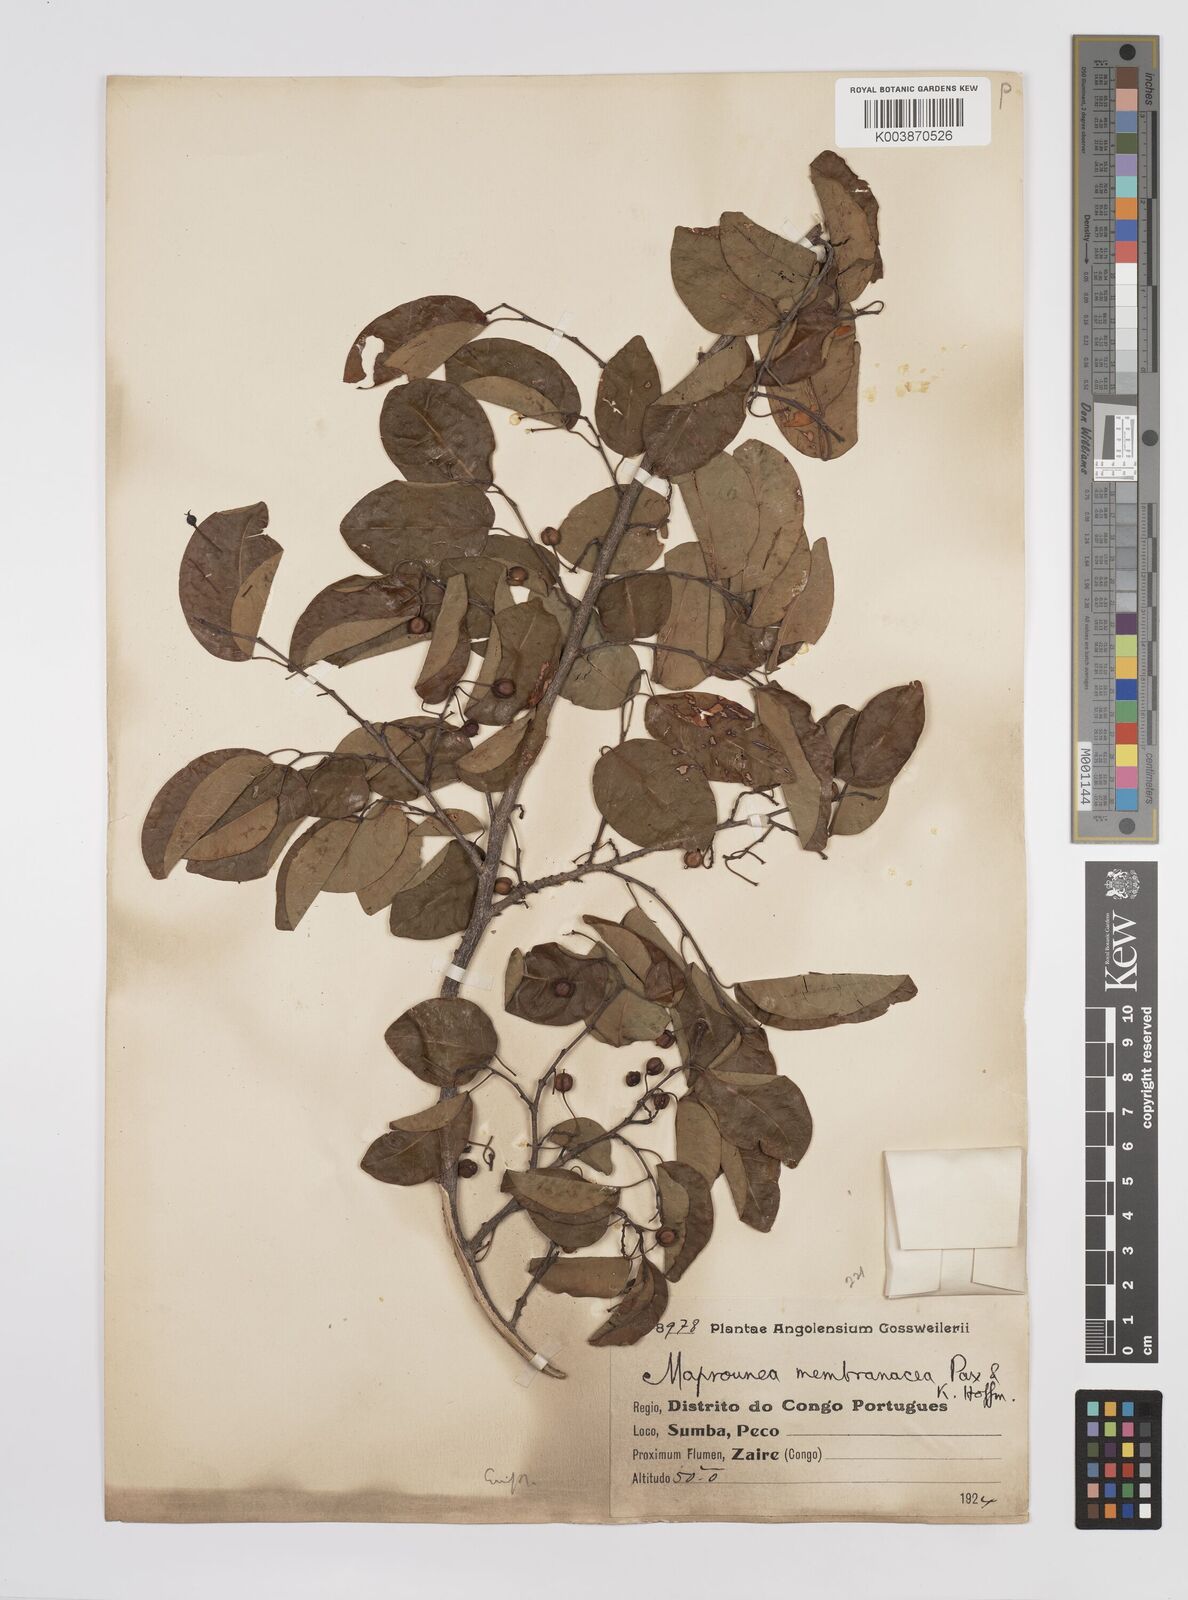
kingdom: Plantae
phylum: Tracheophyta
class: Magnoliopsida
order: Malpighiales
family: Euphorbiaceae
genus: Maprounea
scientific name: Maprounea membranacea
